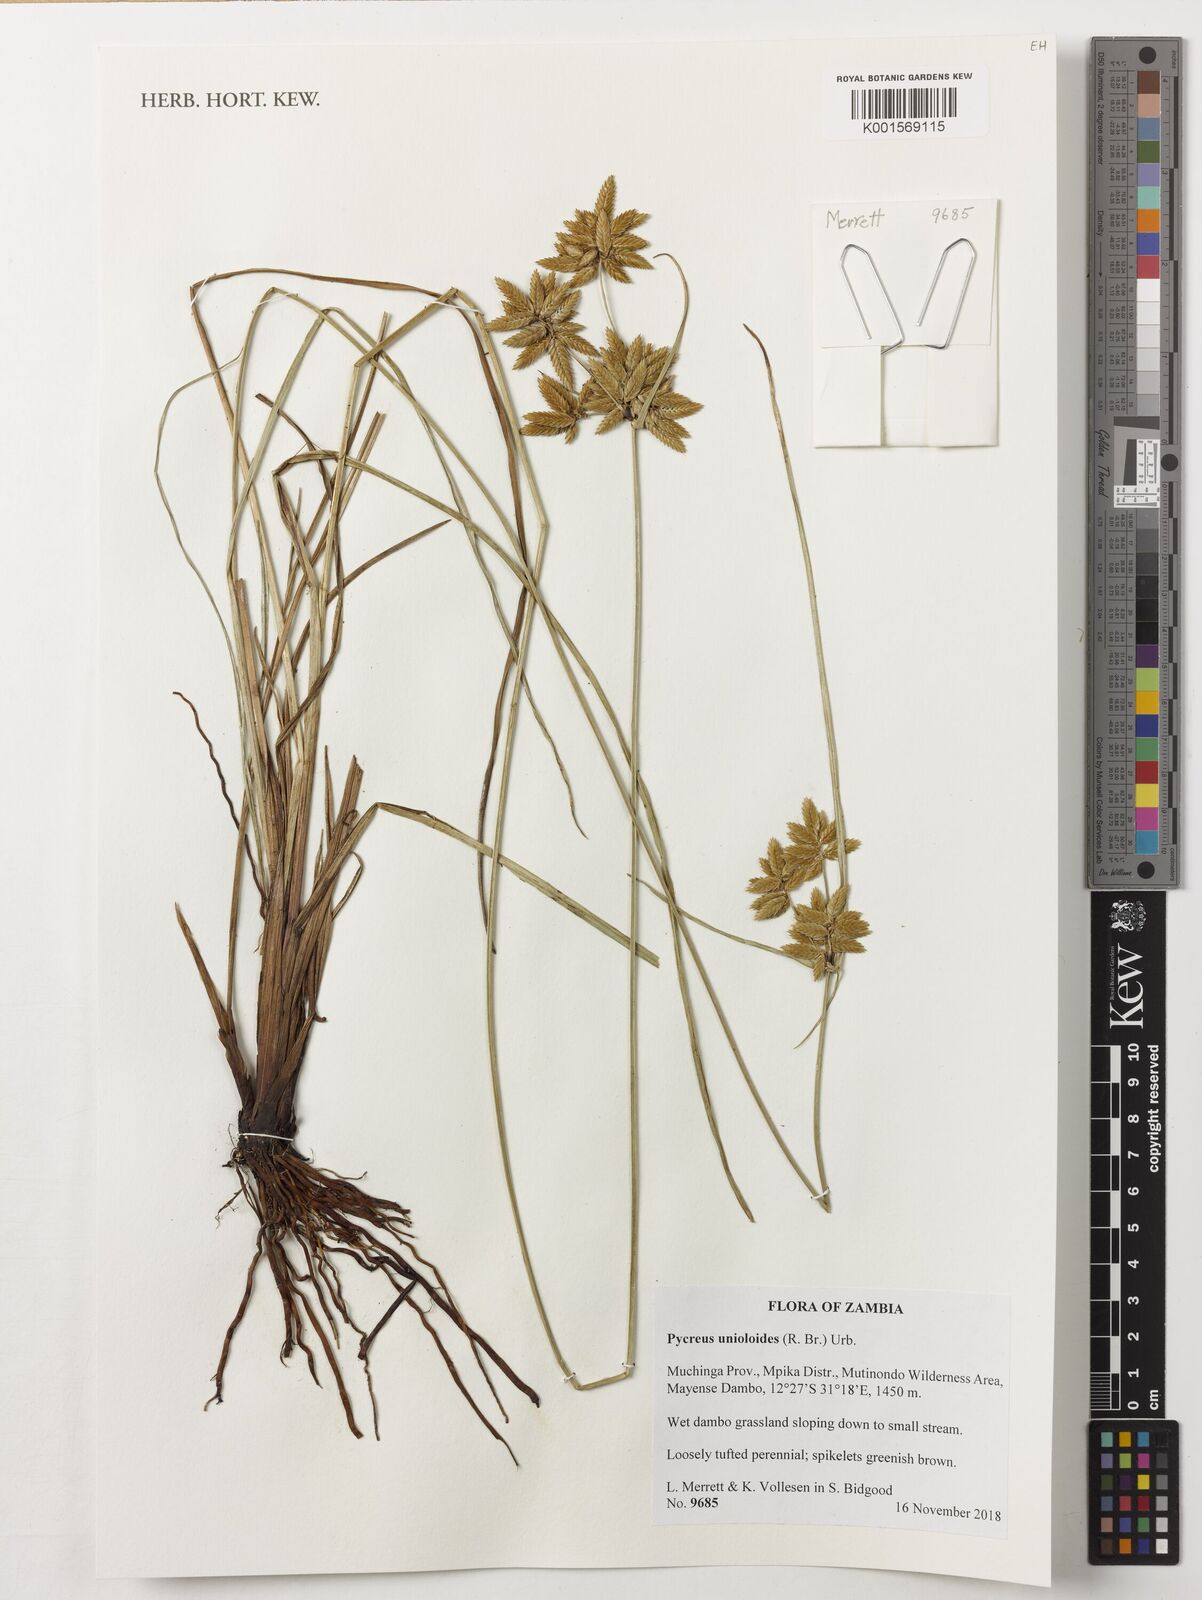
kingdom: Plantae
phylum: Tracheophyta
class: Liliopsida
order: Poales
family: Cyperaceae
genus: Cyperus
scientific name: Cyperus unioloides
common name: Uniola flatsedge
